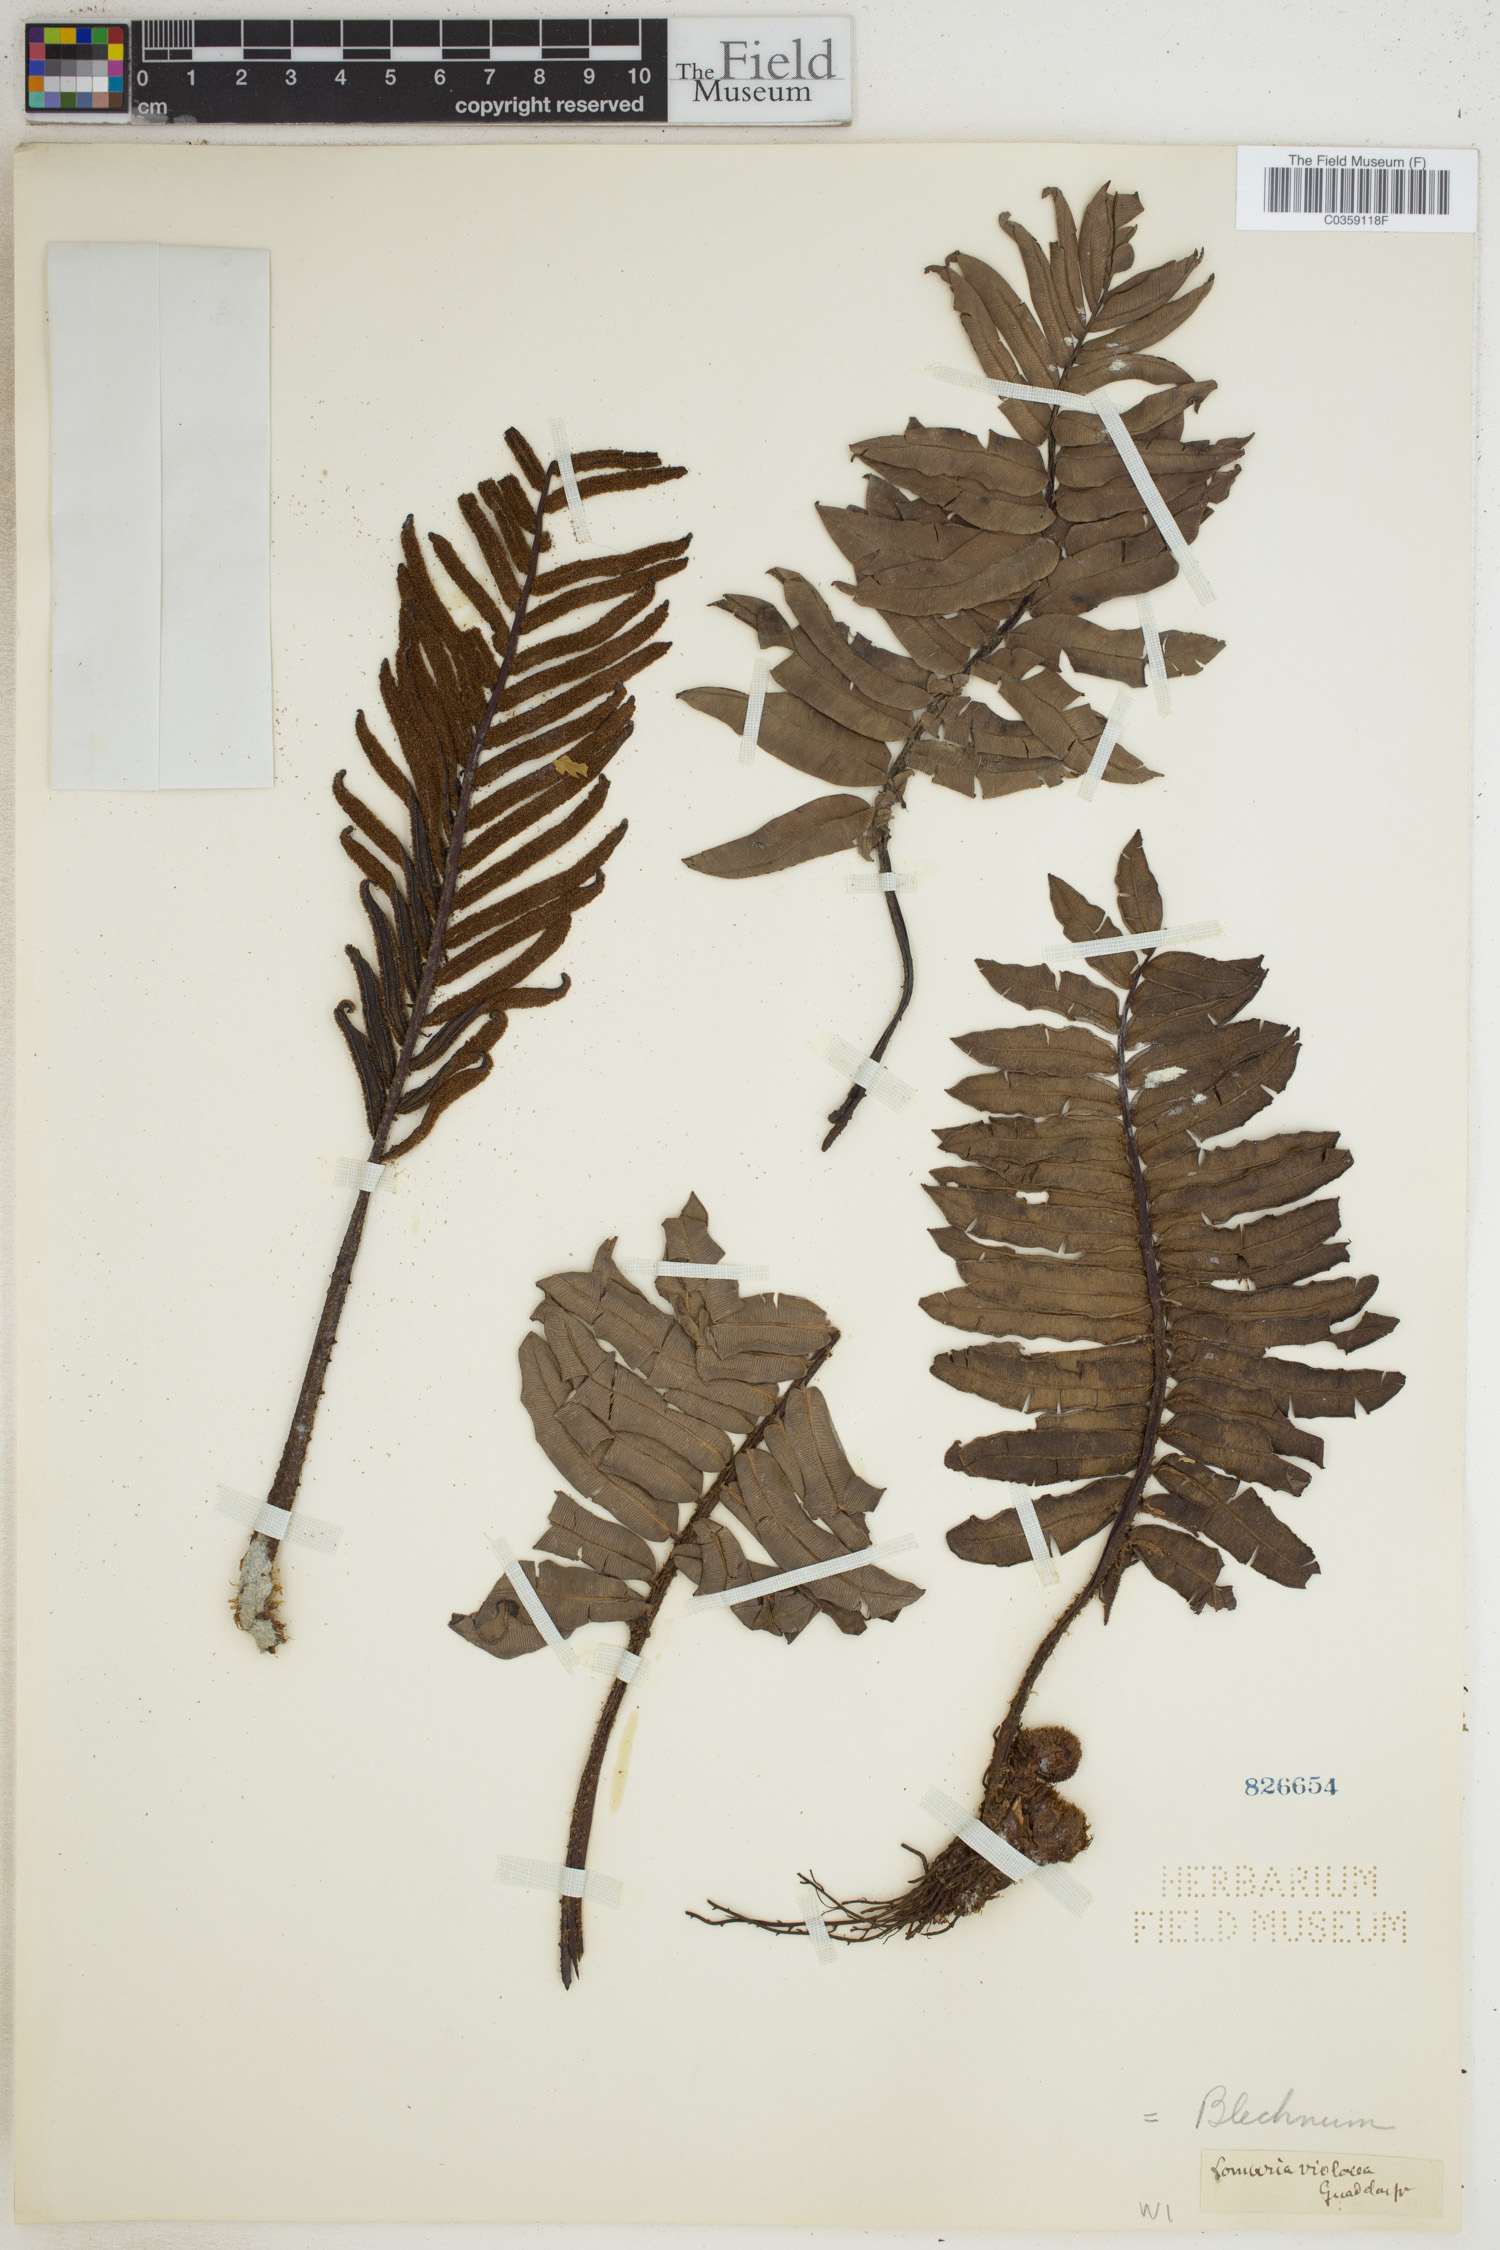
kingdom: Plantae
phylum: Tracheophyta
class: Polypodiopsida
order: Polypodiales
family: Blechnaceae
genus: Parablechnum
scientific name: Parablechnum lechleri
